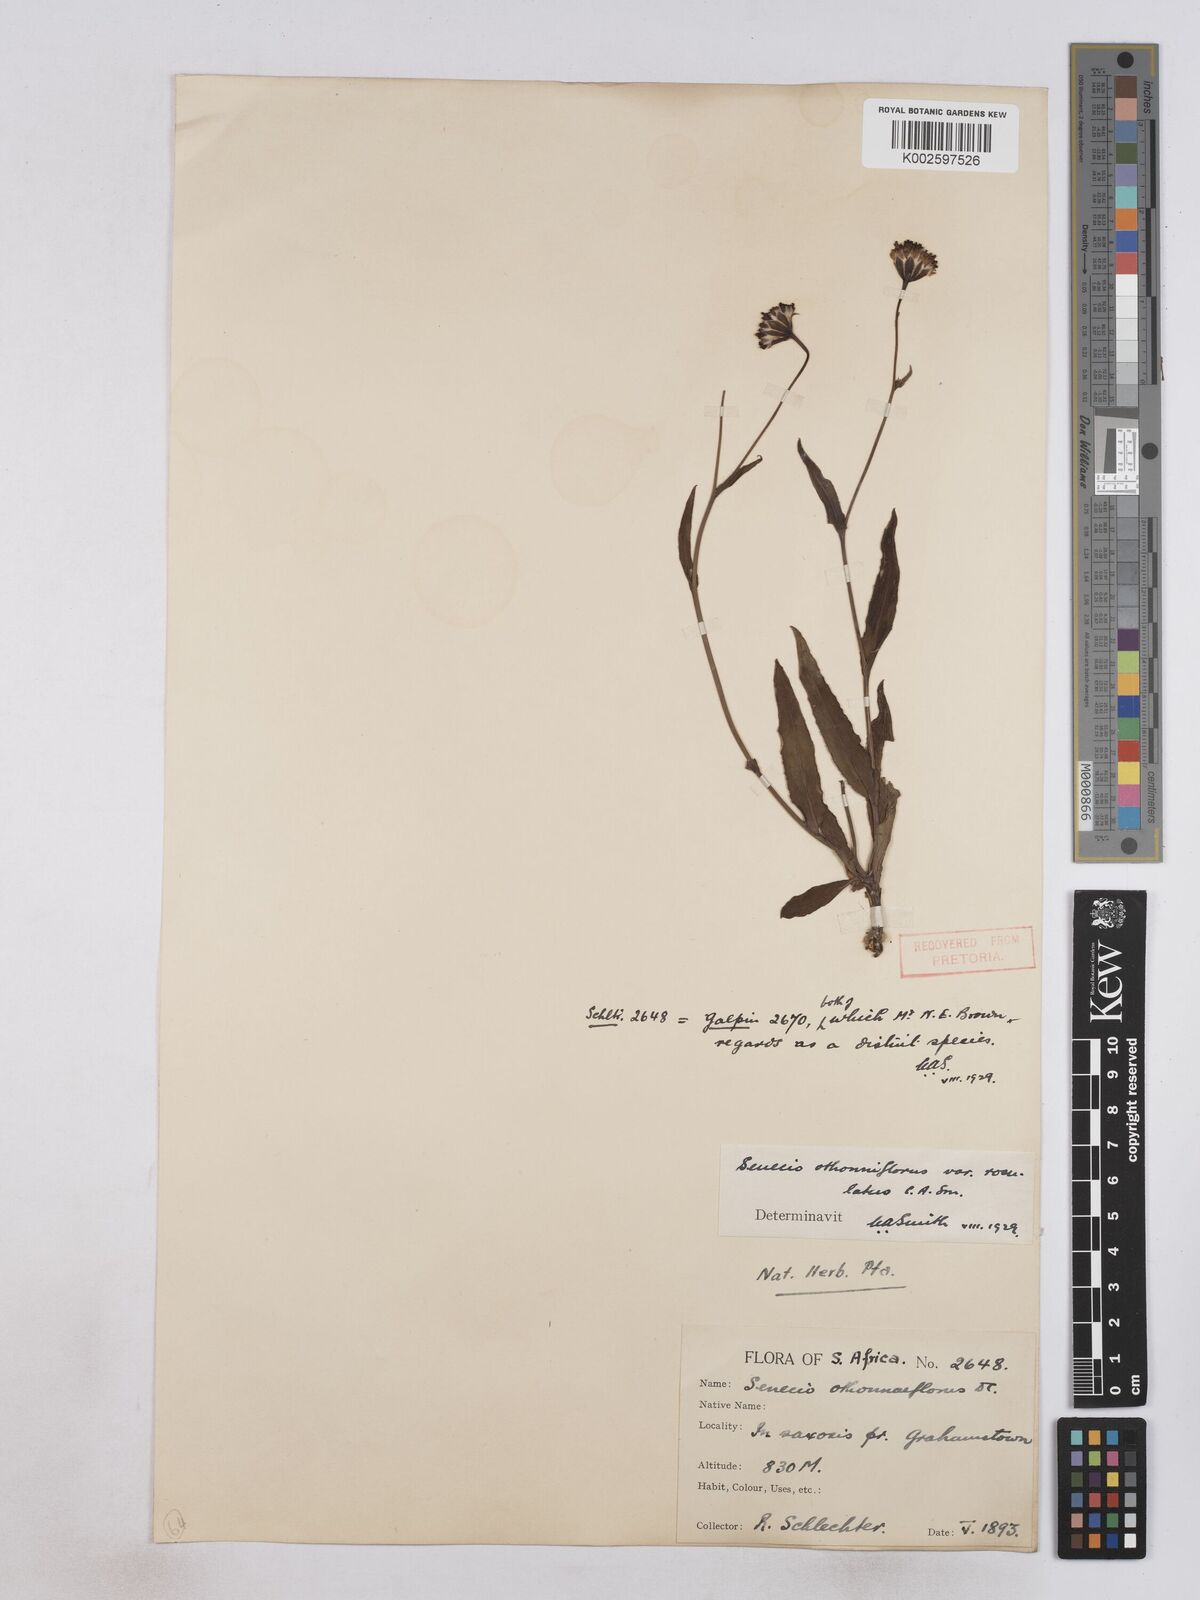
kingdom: Plantae
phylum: Tracheophyta
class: Magnoliopsida
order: Asterales
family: Asteraceae
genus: Senecio
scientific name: Senecio othonniflorus
